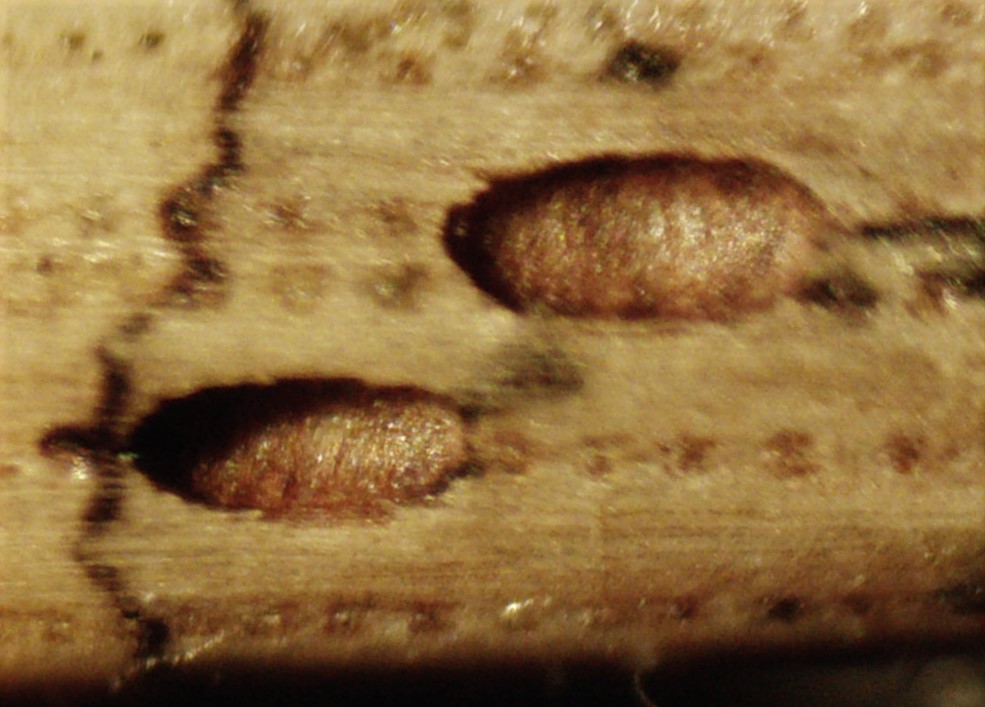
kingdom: Fungi
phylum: Ascomycota
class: Leotiomycetes
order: Rhytismatales
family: Rhytismataceae
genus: Lophodermium
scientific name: Lophodermium pinastri
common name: fyrre-fureplet
